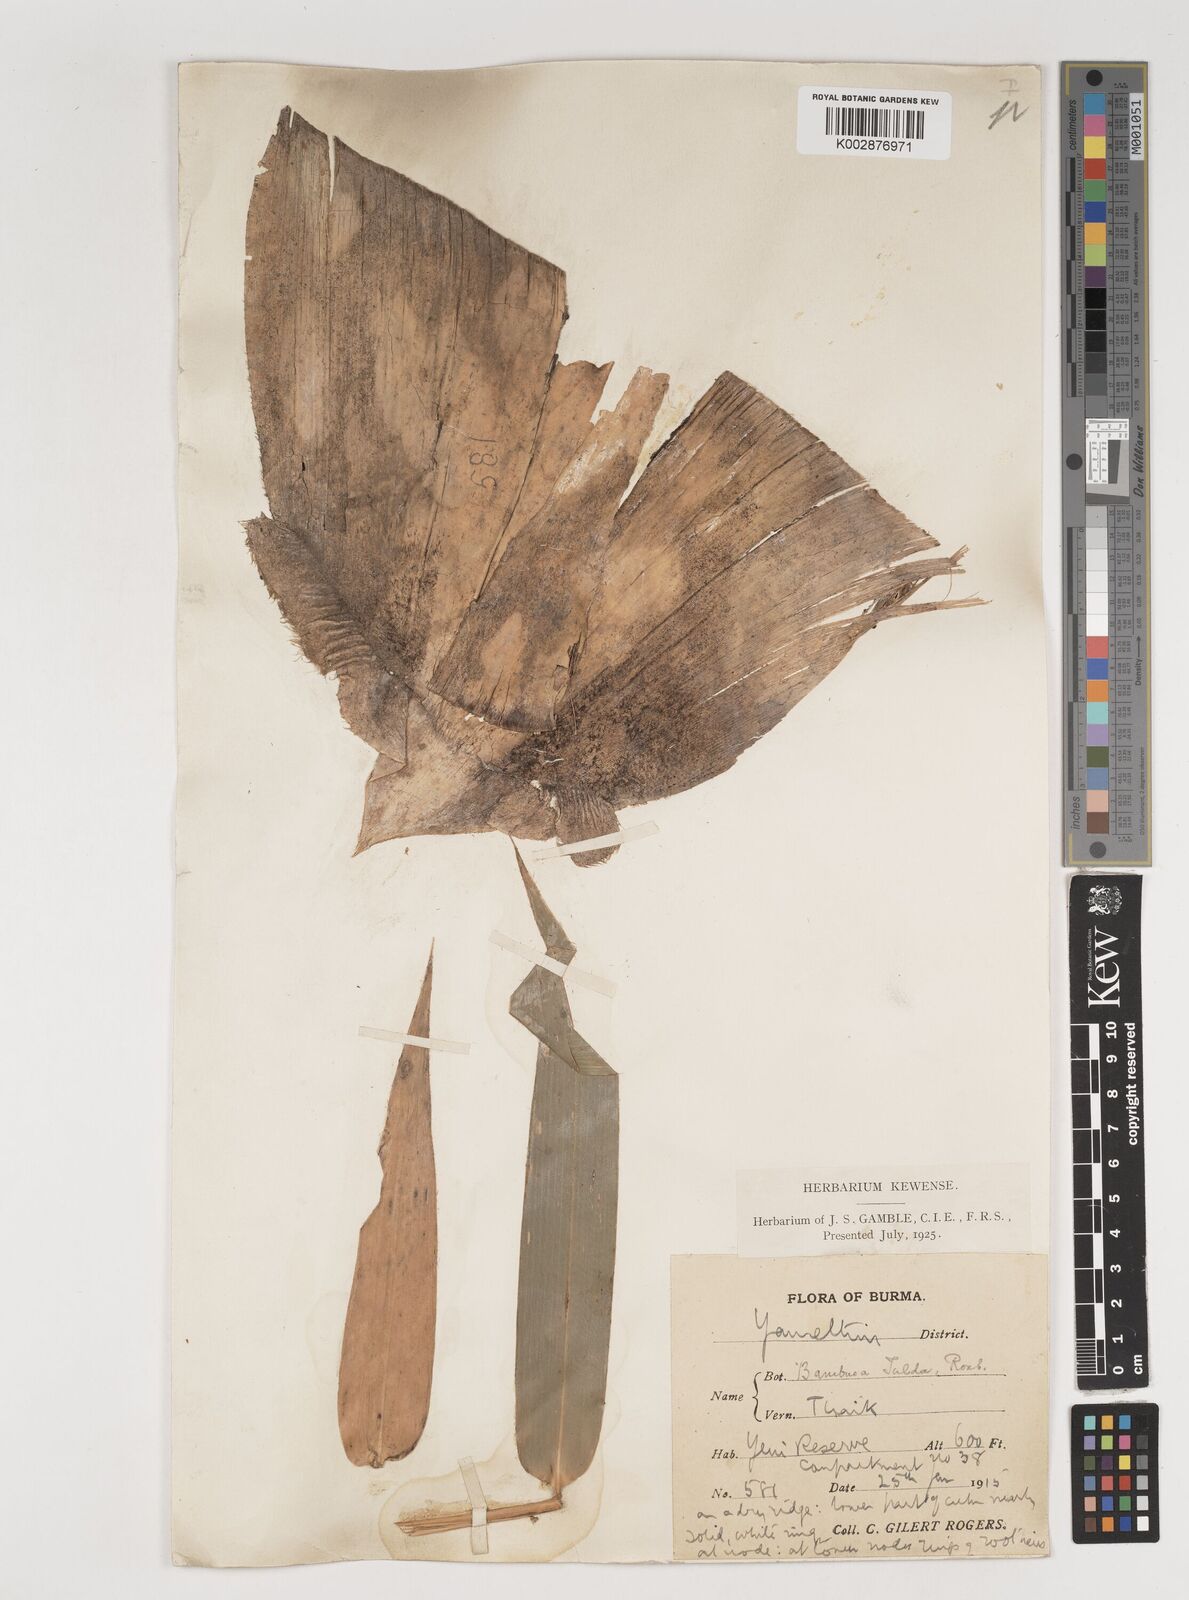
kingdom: Plantae
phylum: Tracheophyta
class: Liliopsida
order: Poales
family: Poaceae
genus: Bambusa
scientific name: Bambusa tulda
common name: Bengal bamboo
